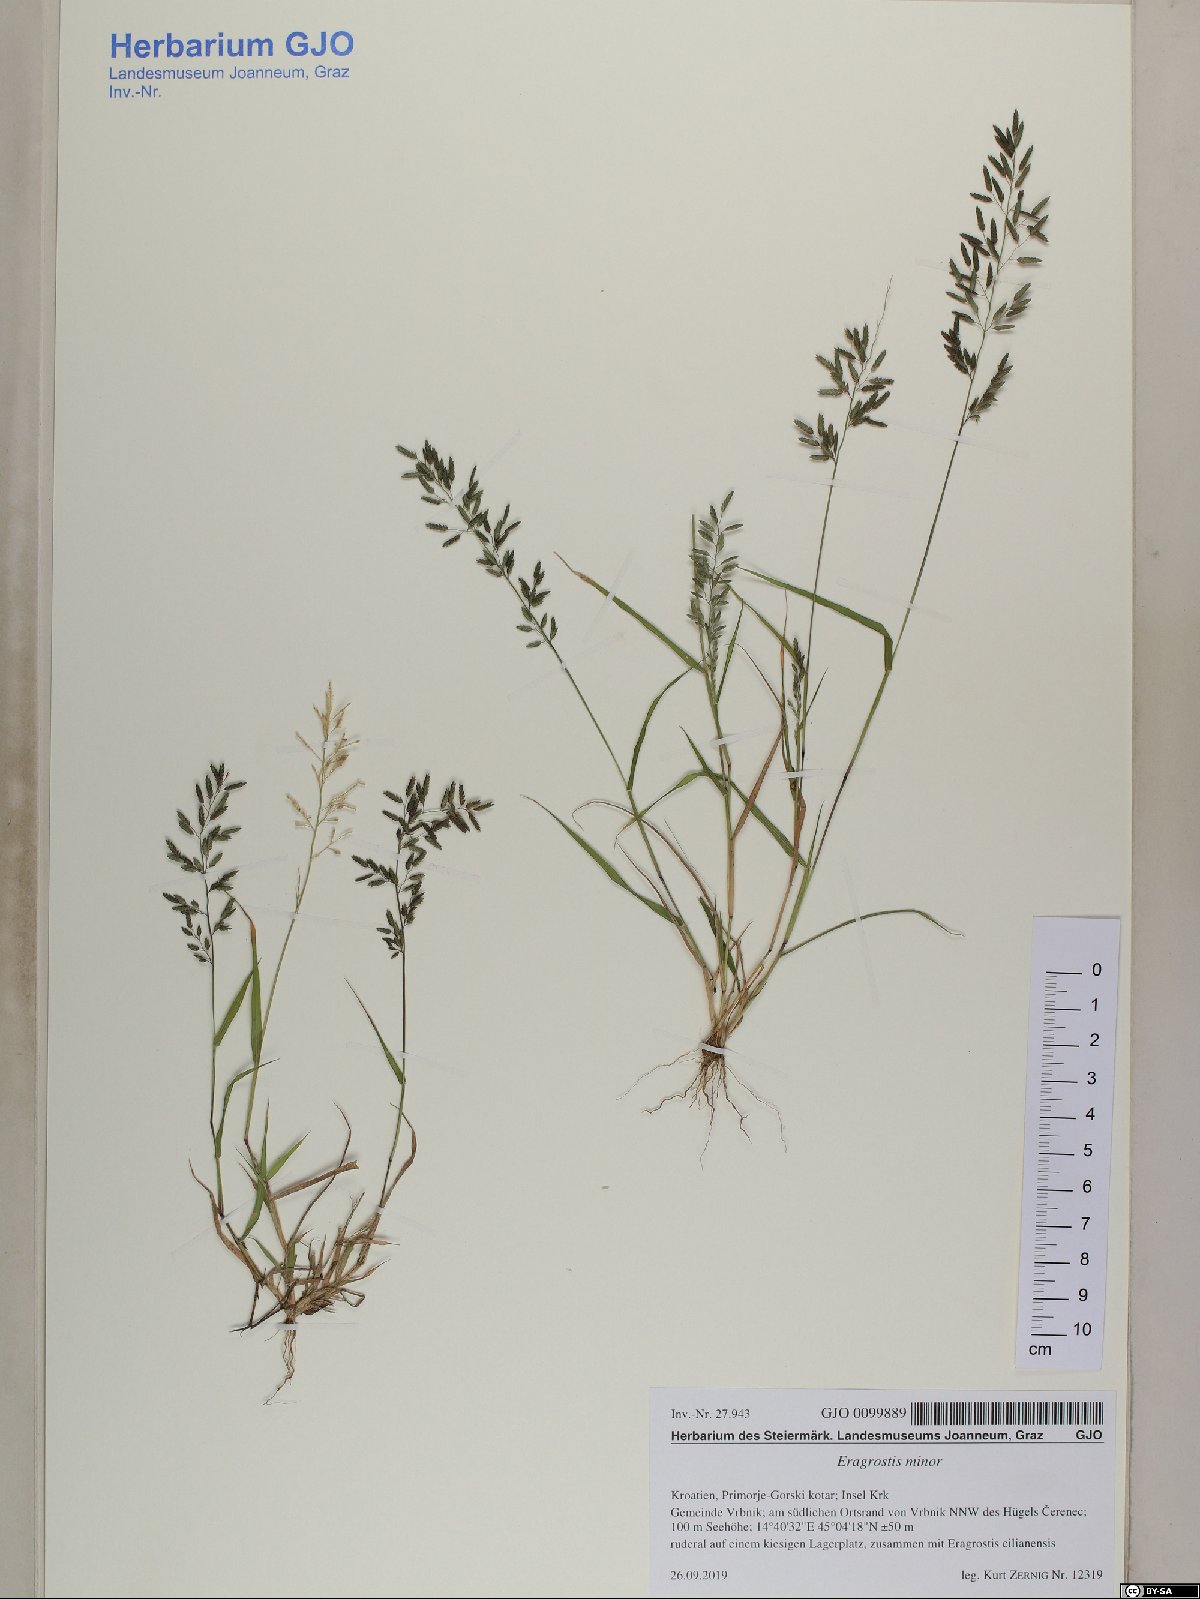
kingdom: Plantae
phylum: Tracheophyta
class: Liliopsida
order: Poales
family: Poaceae
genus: Eragrostis
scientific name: Eragrostis minor
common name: Small love-grass
